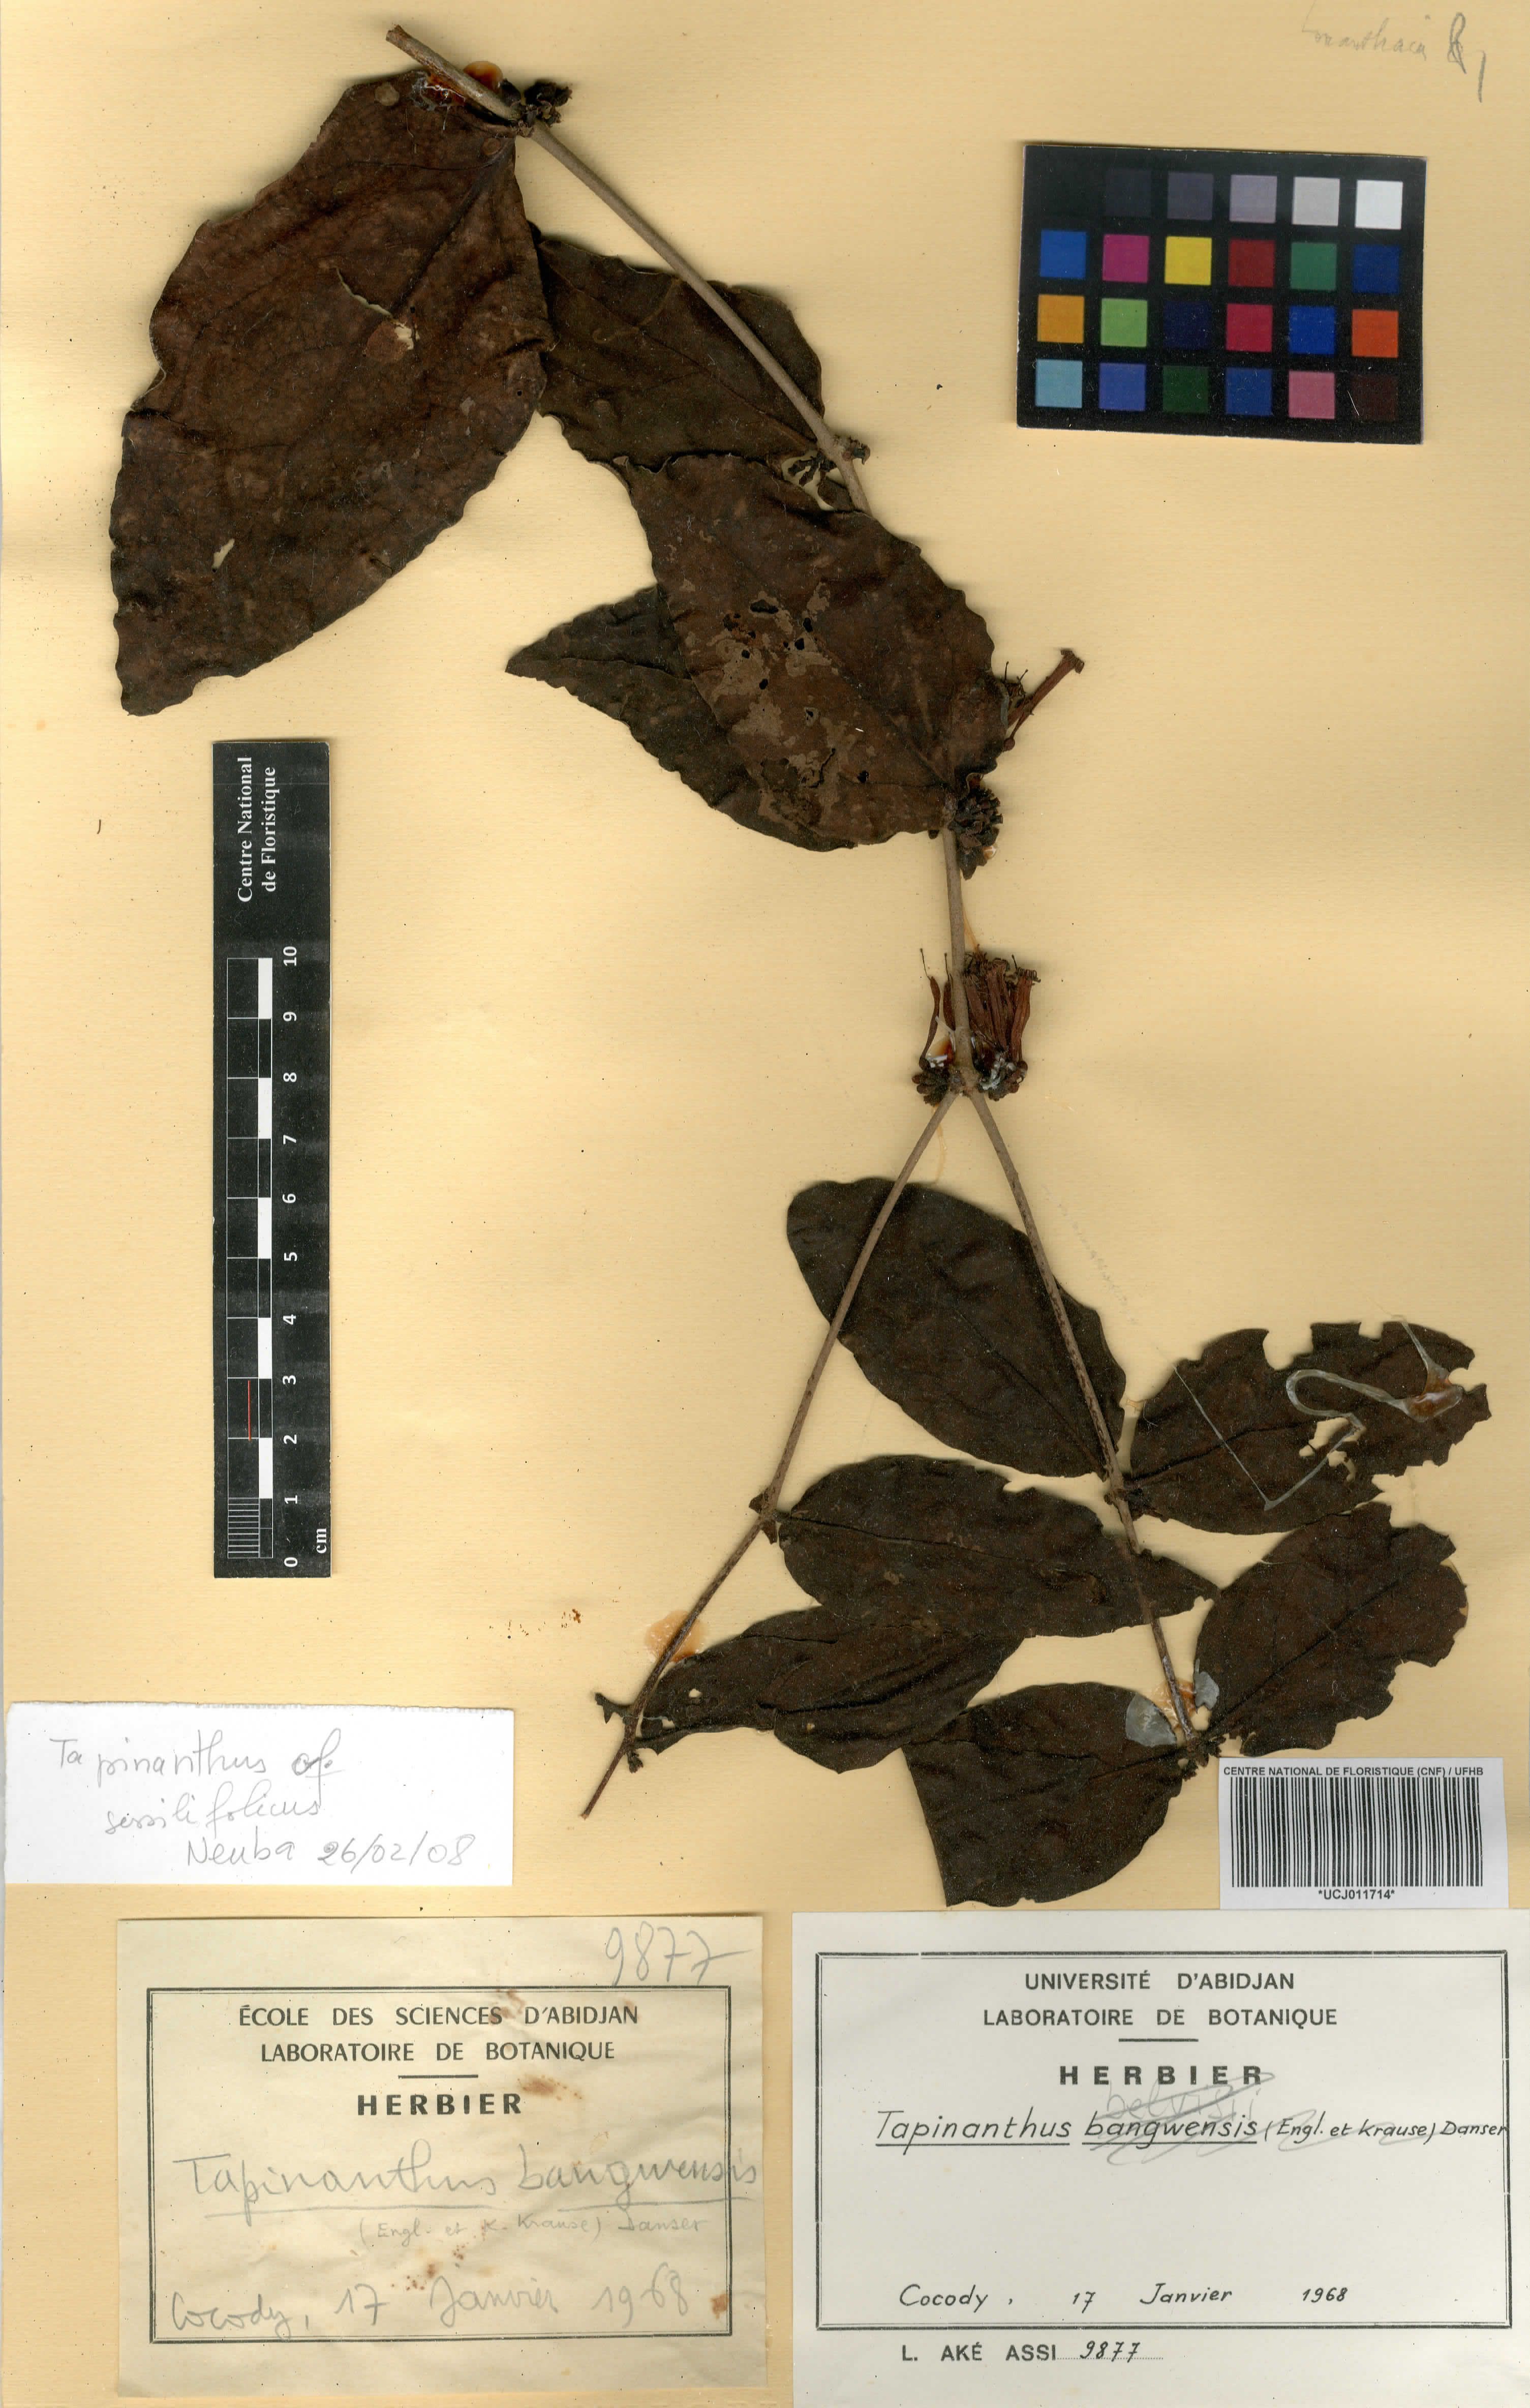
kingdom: Plantae
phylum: Tracheophyta
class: Magnoliopsida
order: Santalales
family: Loranthaceae
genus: Tapinanthus
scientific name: Tapinanthus
